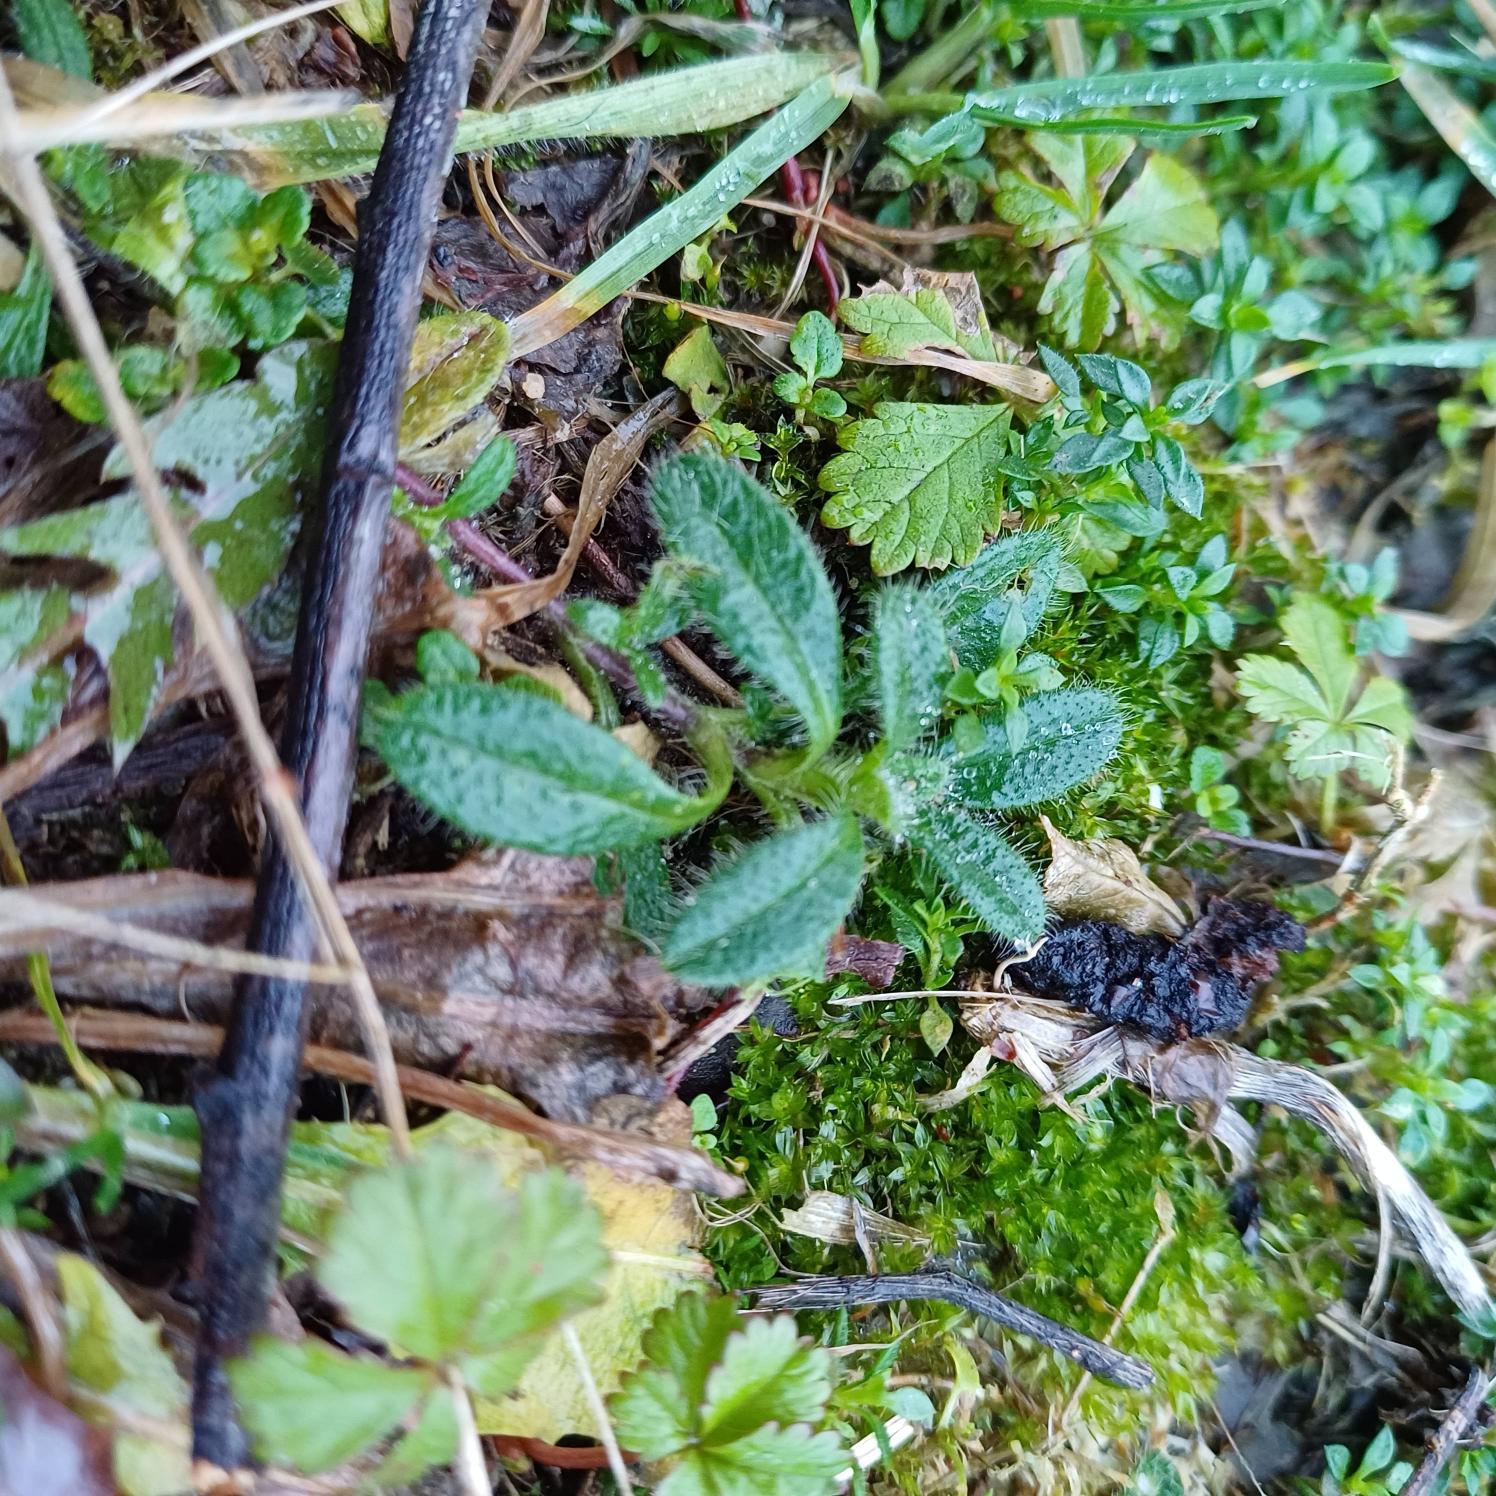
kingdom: Plantae
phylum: Tracheophyta
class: Magnoliopsida
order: Caryophyllales
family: Caryophyllaceae
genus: Cerastium
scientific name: Cerastium fontanum
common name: Almindelig hønsetarm
